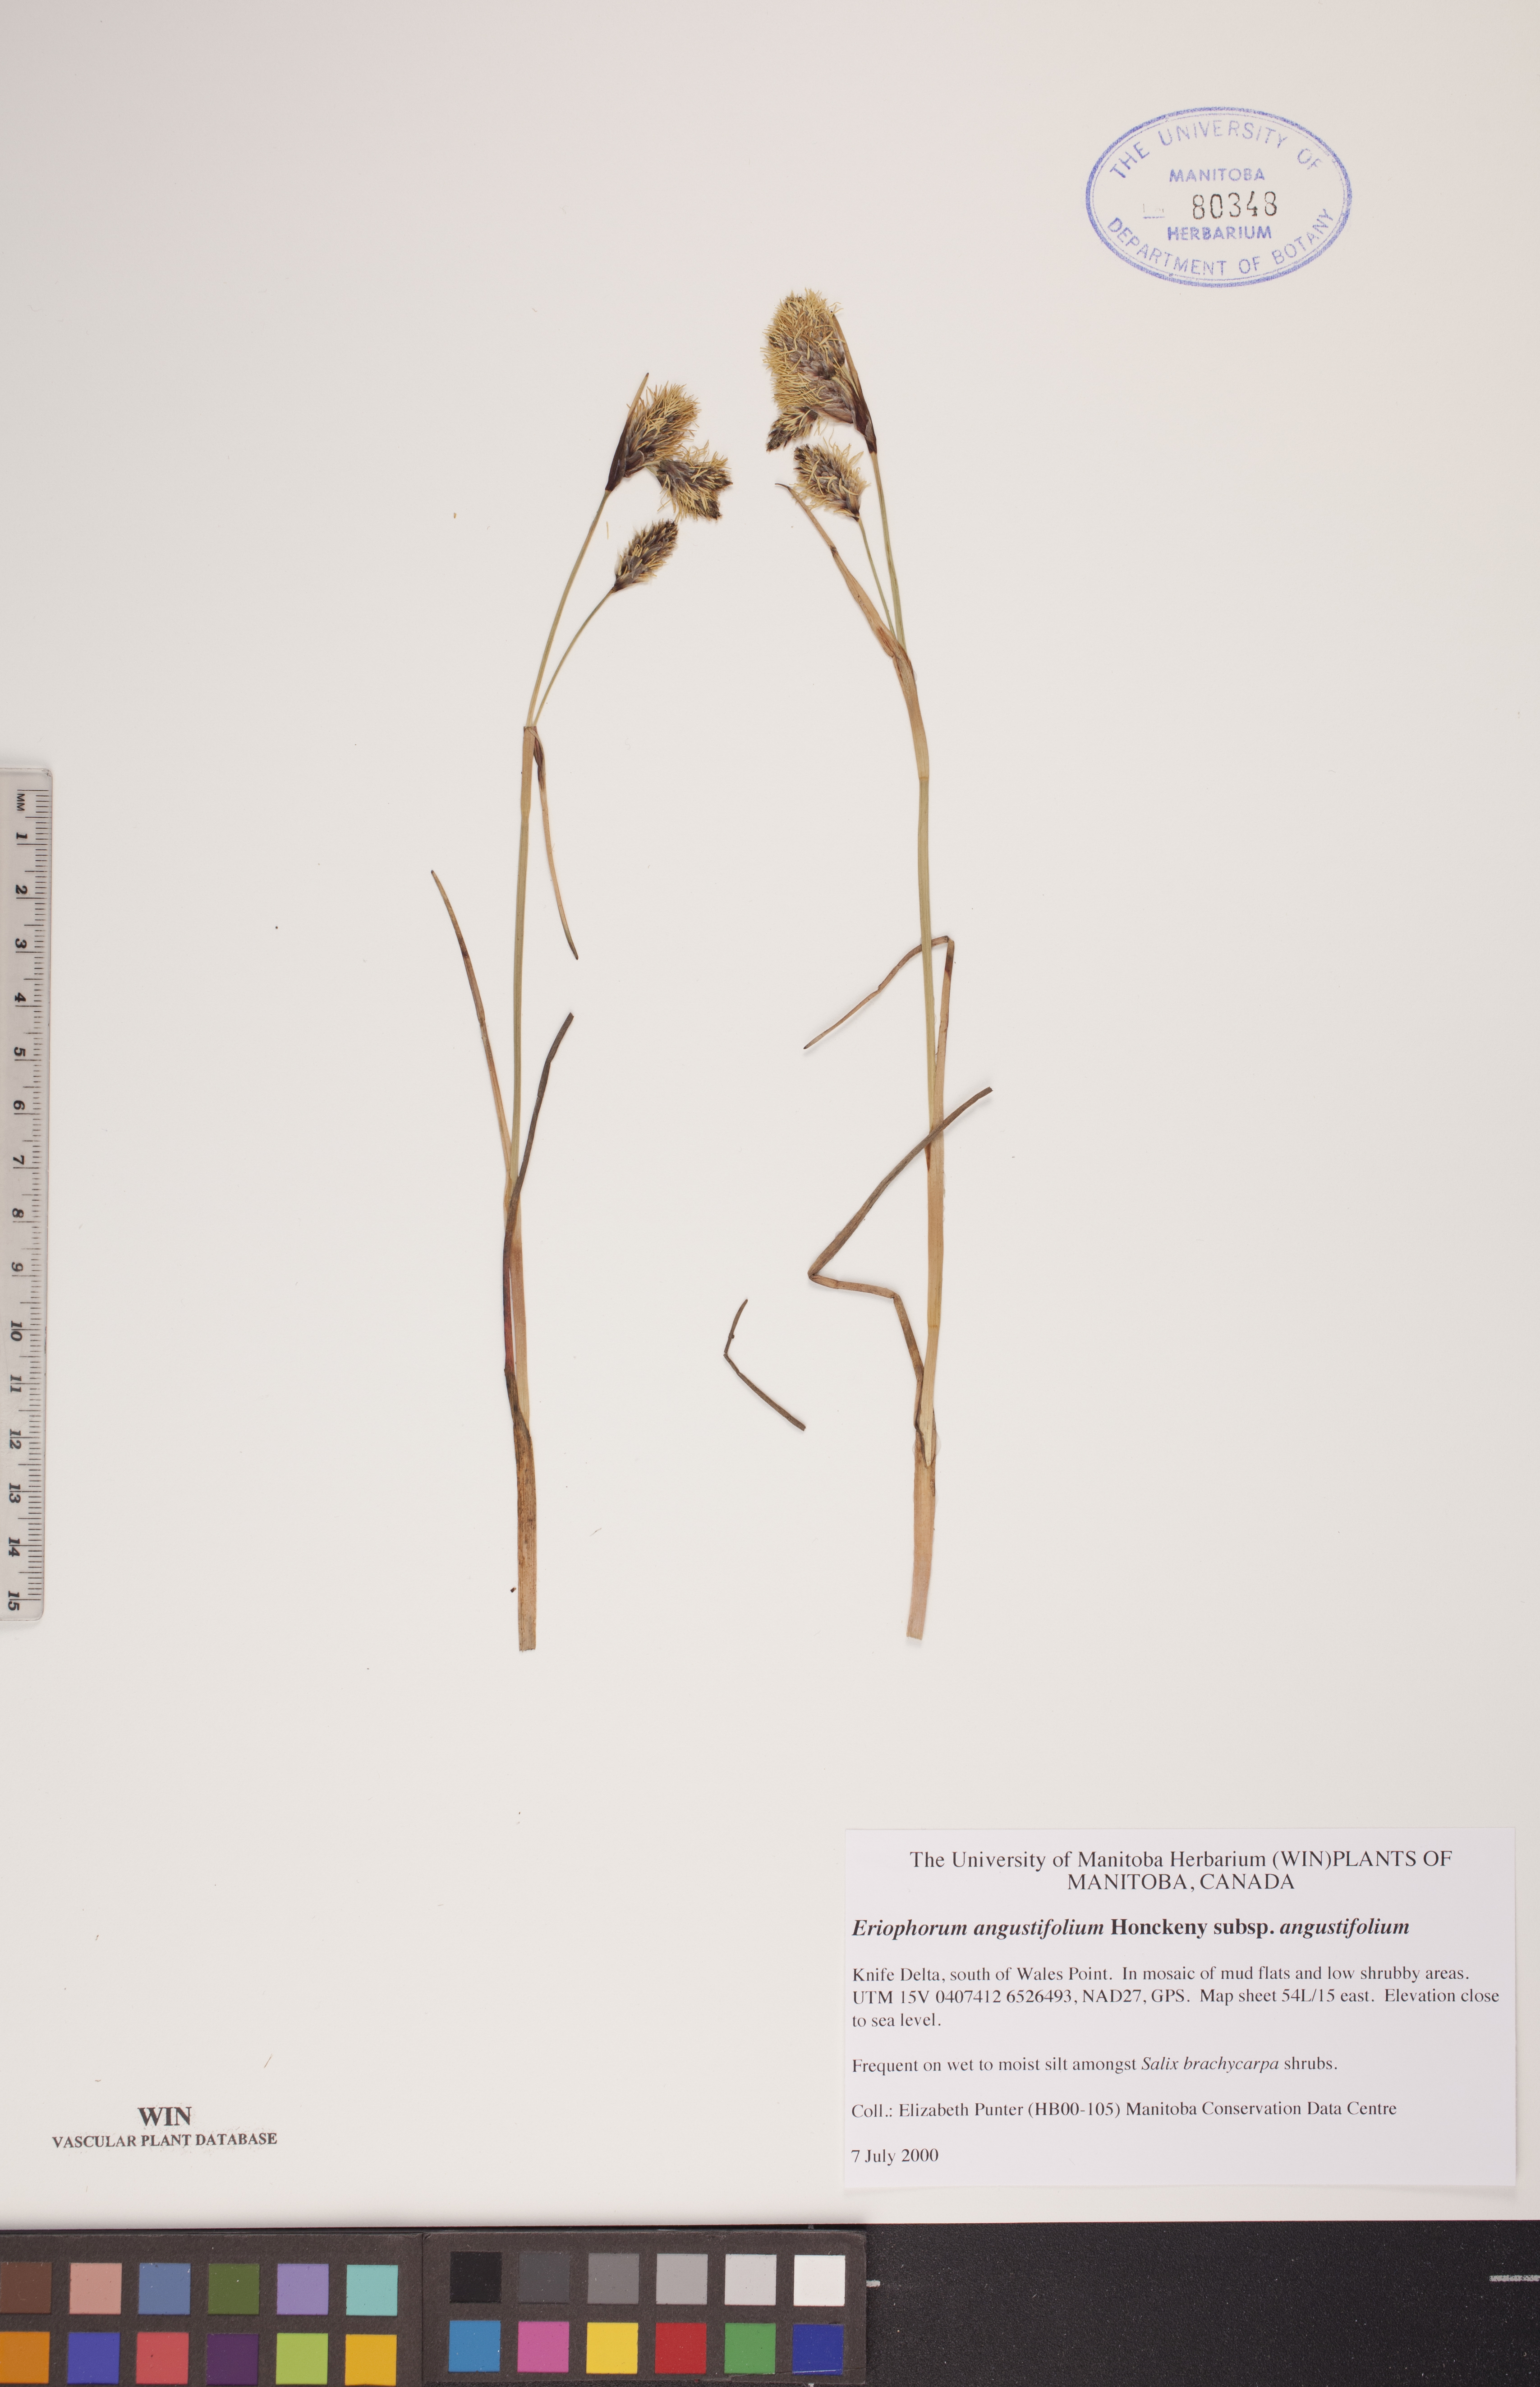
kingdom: Plantae
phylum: Tracheophyta
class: Liliopsida
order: Poales
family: Cyperaceae
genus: Eriophorum
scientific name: Eriophorum angustifolium
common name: Common cottongrass
